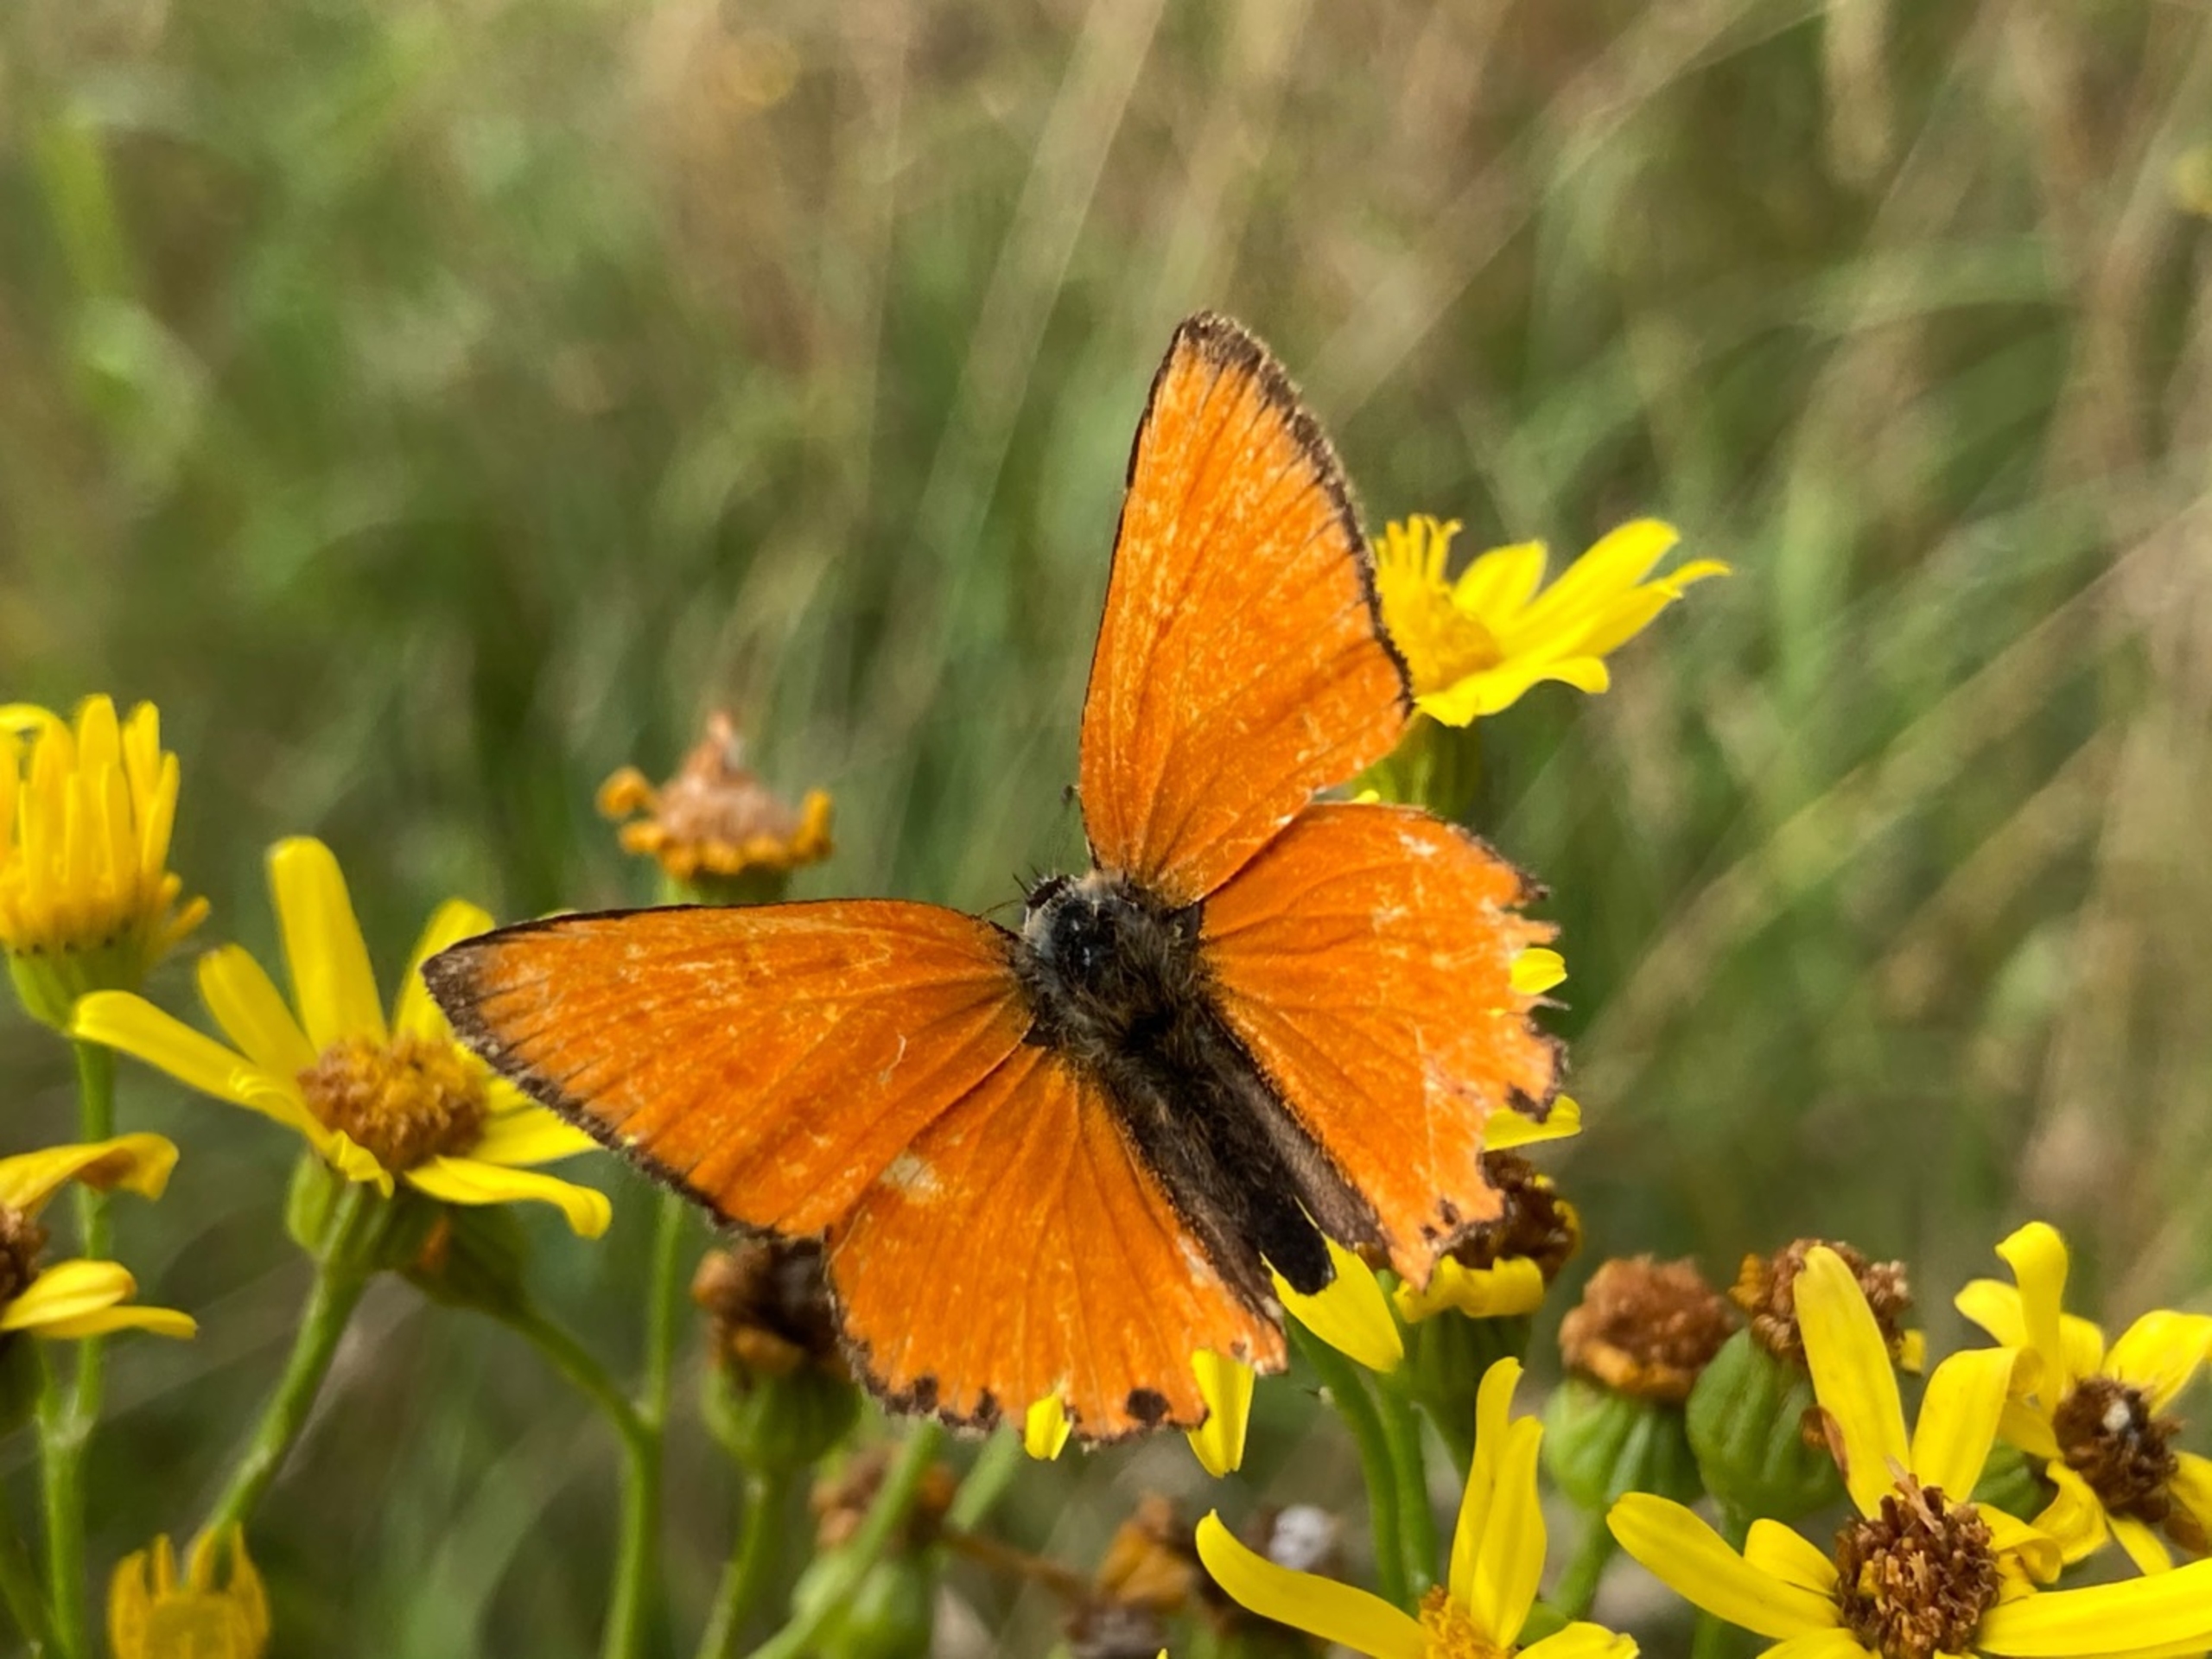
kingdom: Animalia
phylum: Arthropoda
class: Insecta
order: Lepidoptera
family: Lycaenidae
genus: Lycaena
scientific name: Lycaena virgaureae
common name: Dukatsommerfugl
